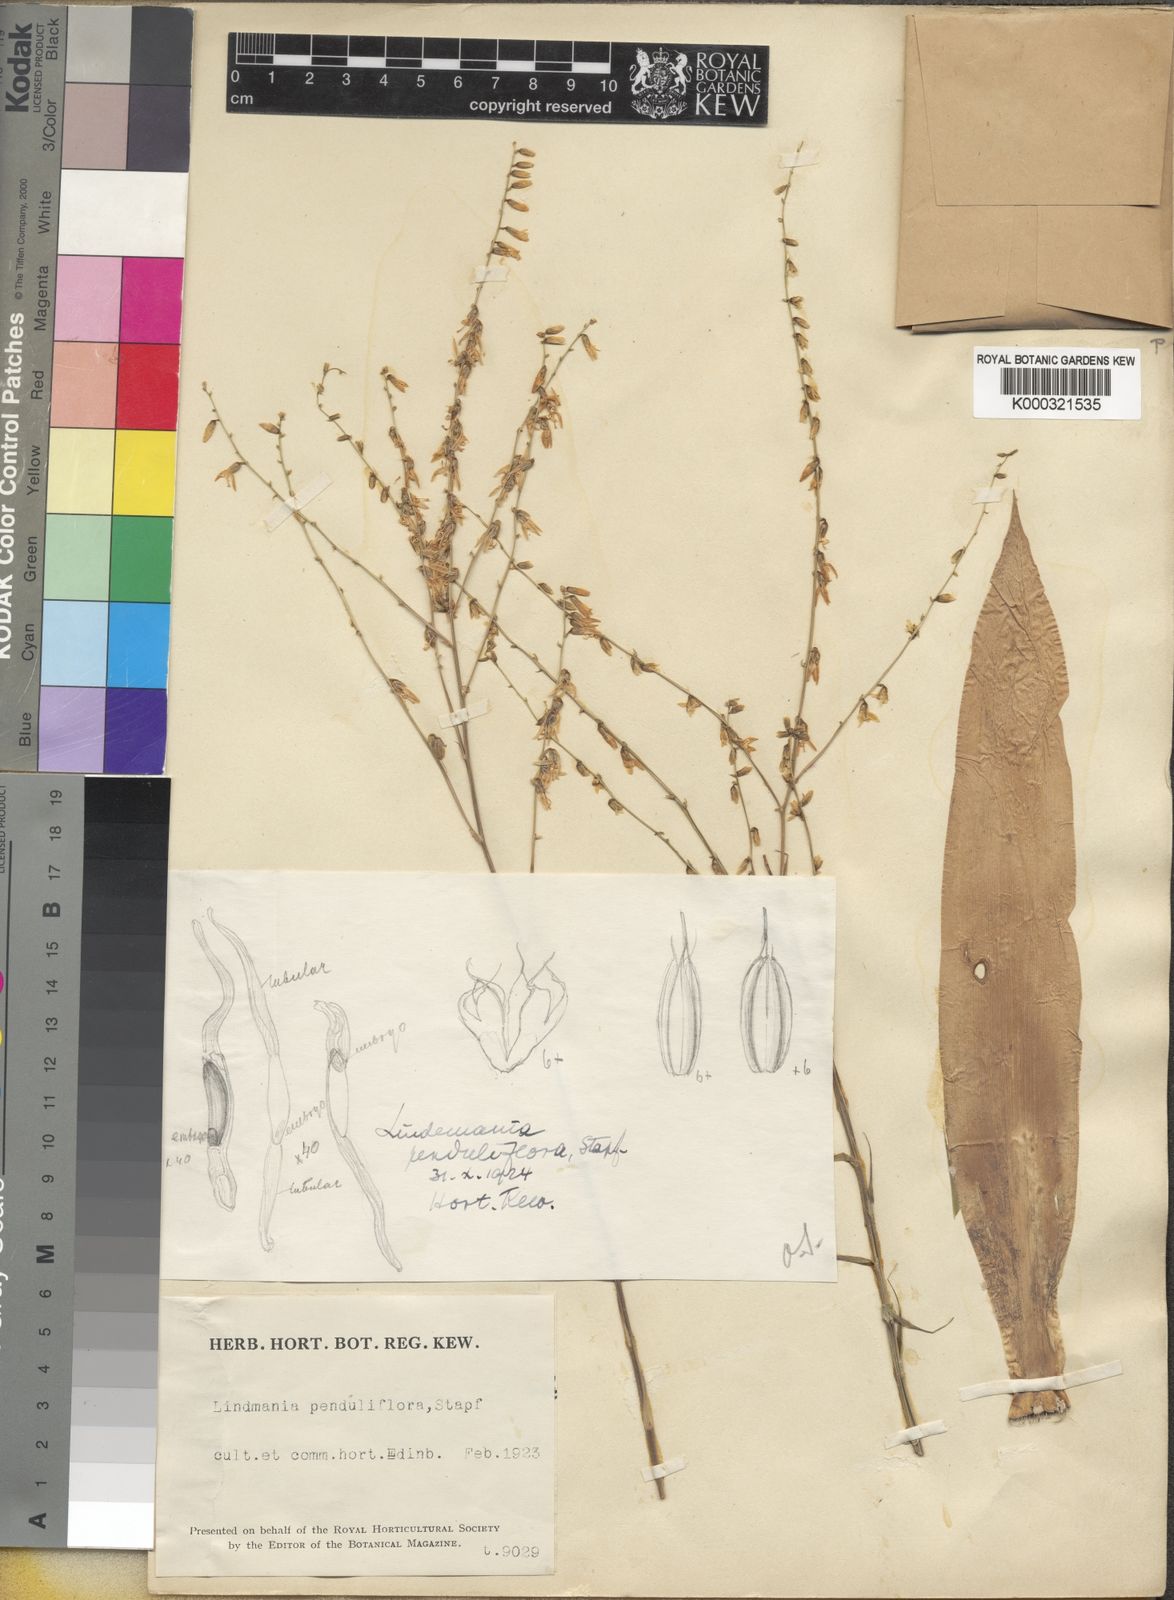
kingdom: Plantae
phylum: Tracheophyta
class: Liliopsida
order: Poales
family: Bromeliaceae
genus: Fosterella
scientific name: Fosterella penduliflora
